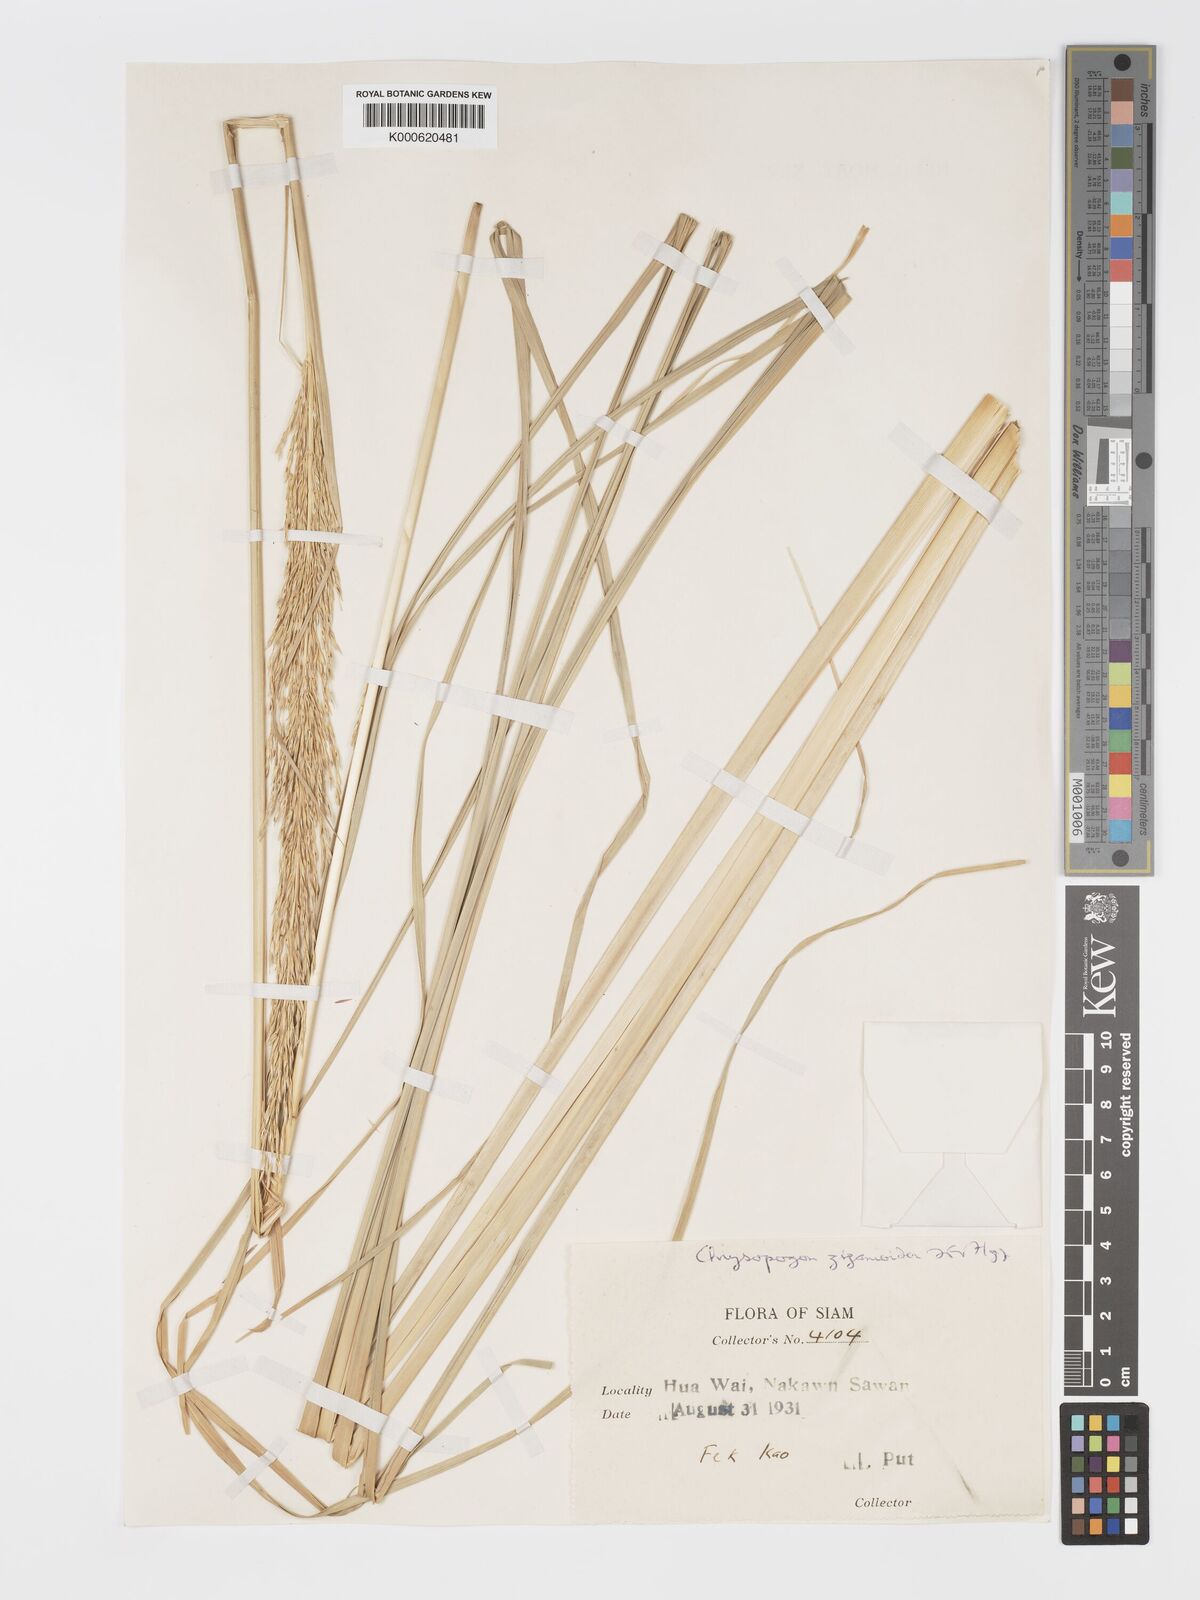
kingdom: Plantae
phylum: Tracheophyta
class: Liliopsida
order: Poales
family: Poaceae
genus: Chrysopogon
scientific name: Chrysopogon zizanioides
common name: False beardgrass
